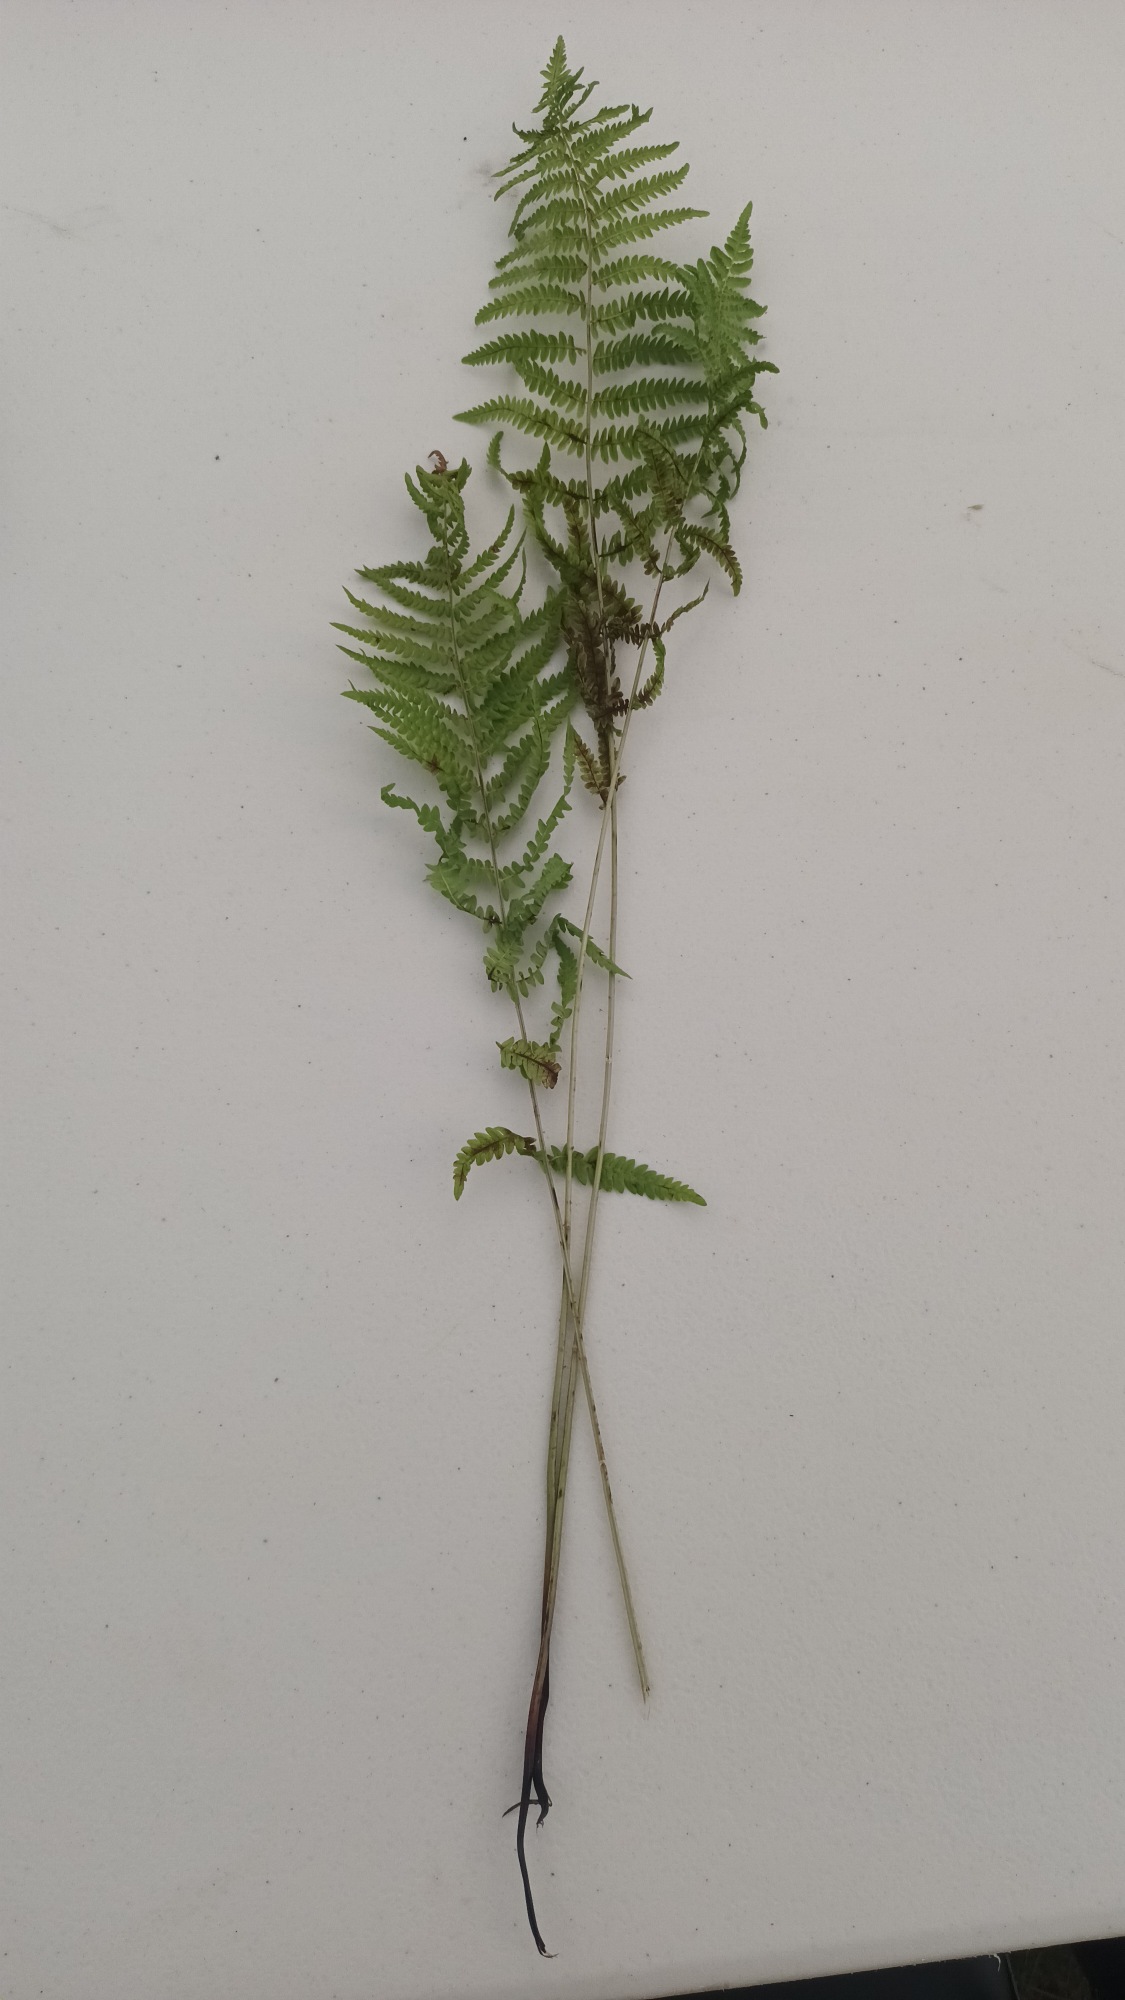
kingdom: Plantae
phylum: Tracheophyta
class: Polypodiopsida
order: Polypodiales
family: Thelypteridaceae
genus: Thelypteris
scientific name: Thelypteris palustris
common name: Kærmangeløv
